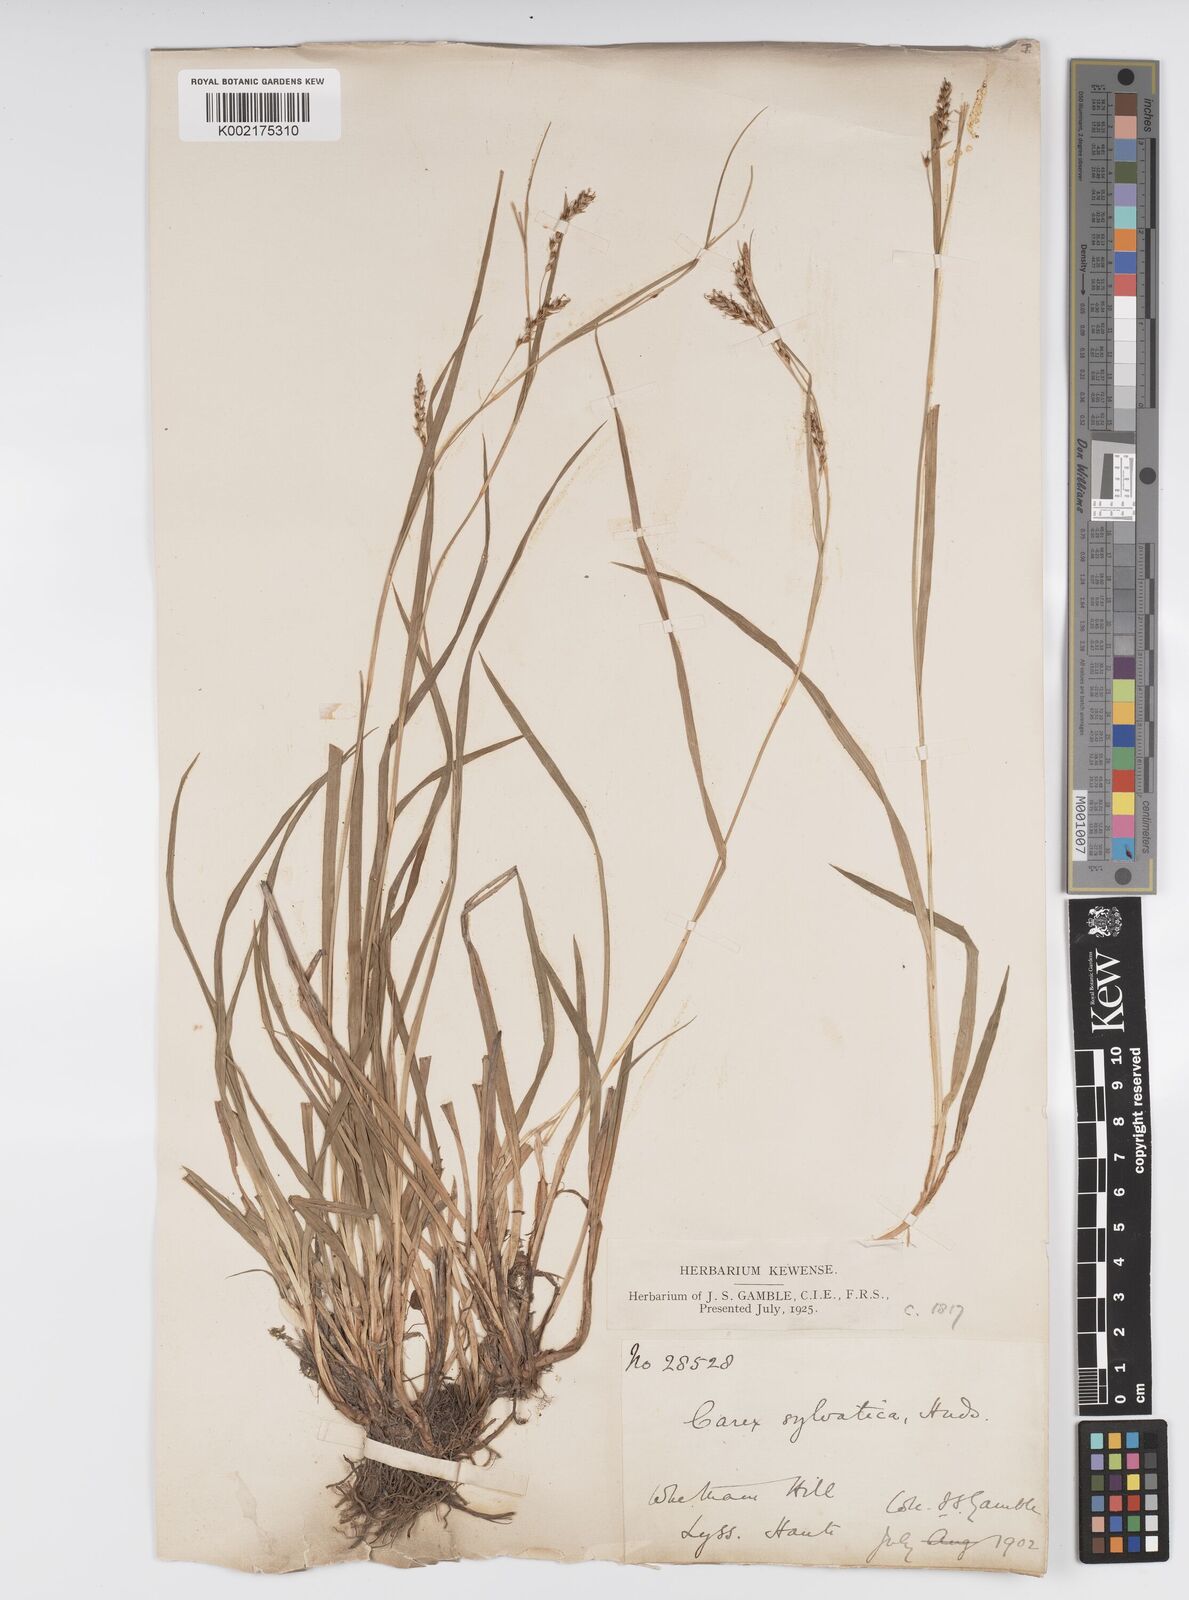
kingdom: Plantae
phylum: Tracheophyta
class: Liliopsida
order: Poales
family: Cyperaceae
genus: Carex
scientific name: Carex sylvatica
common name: Wood-sedge
